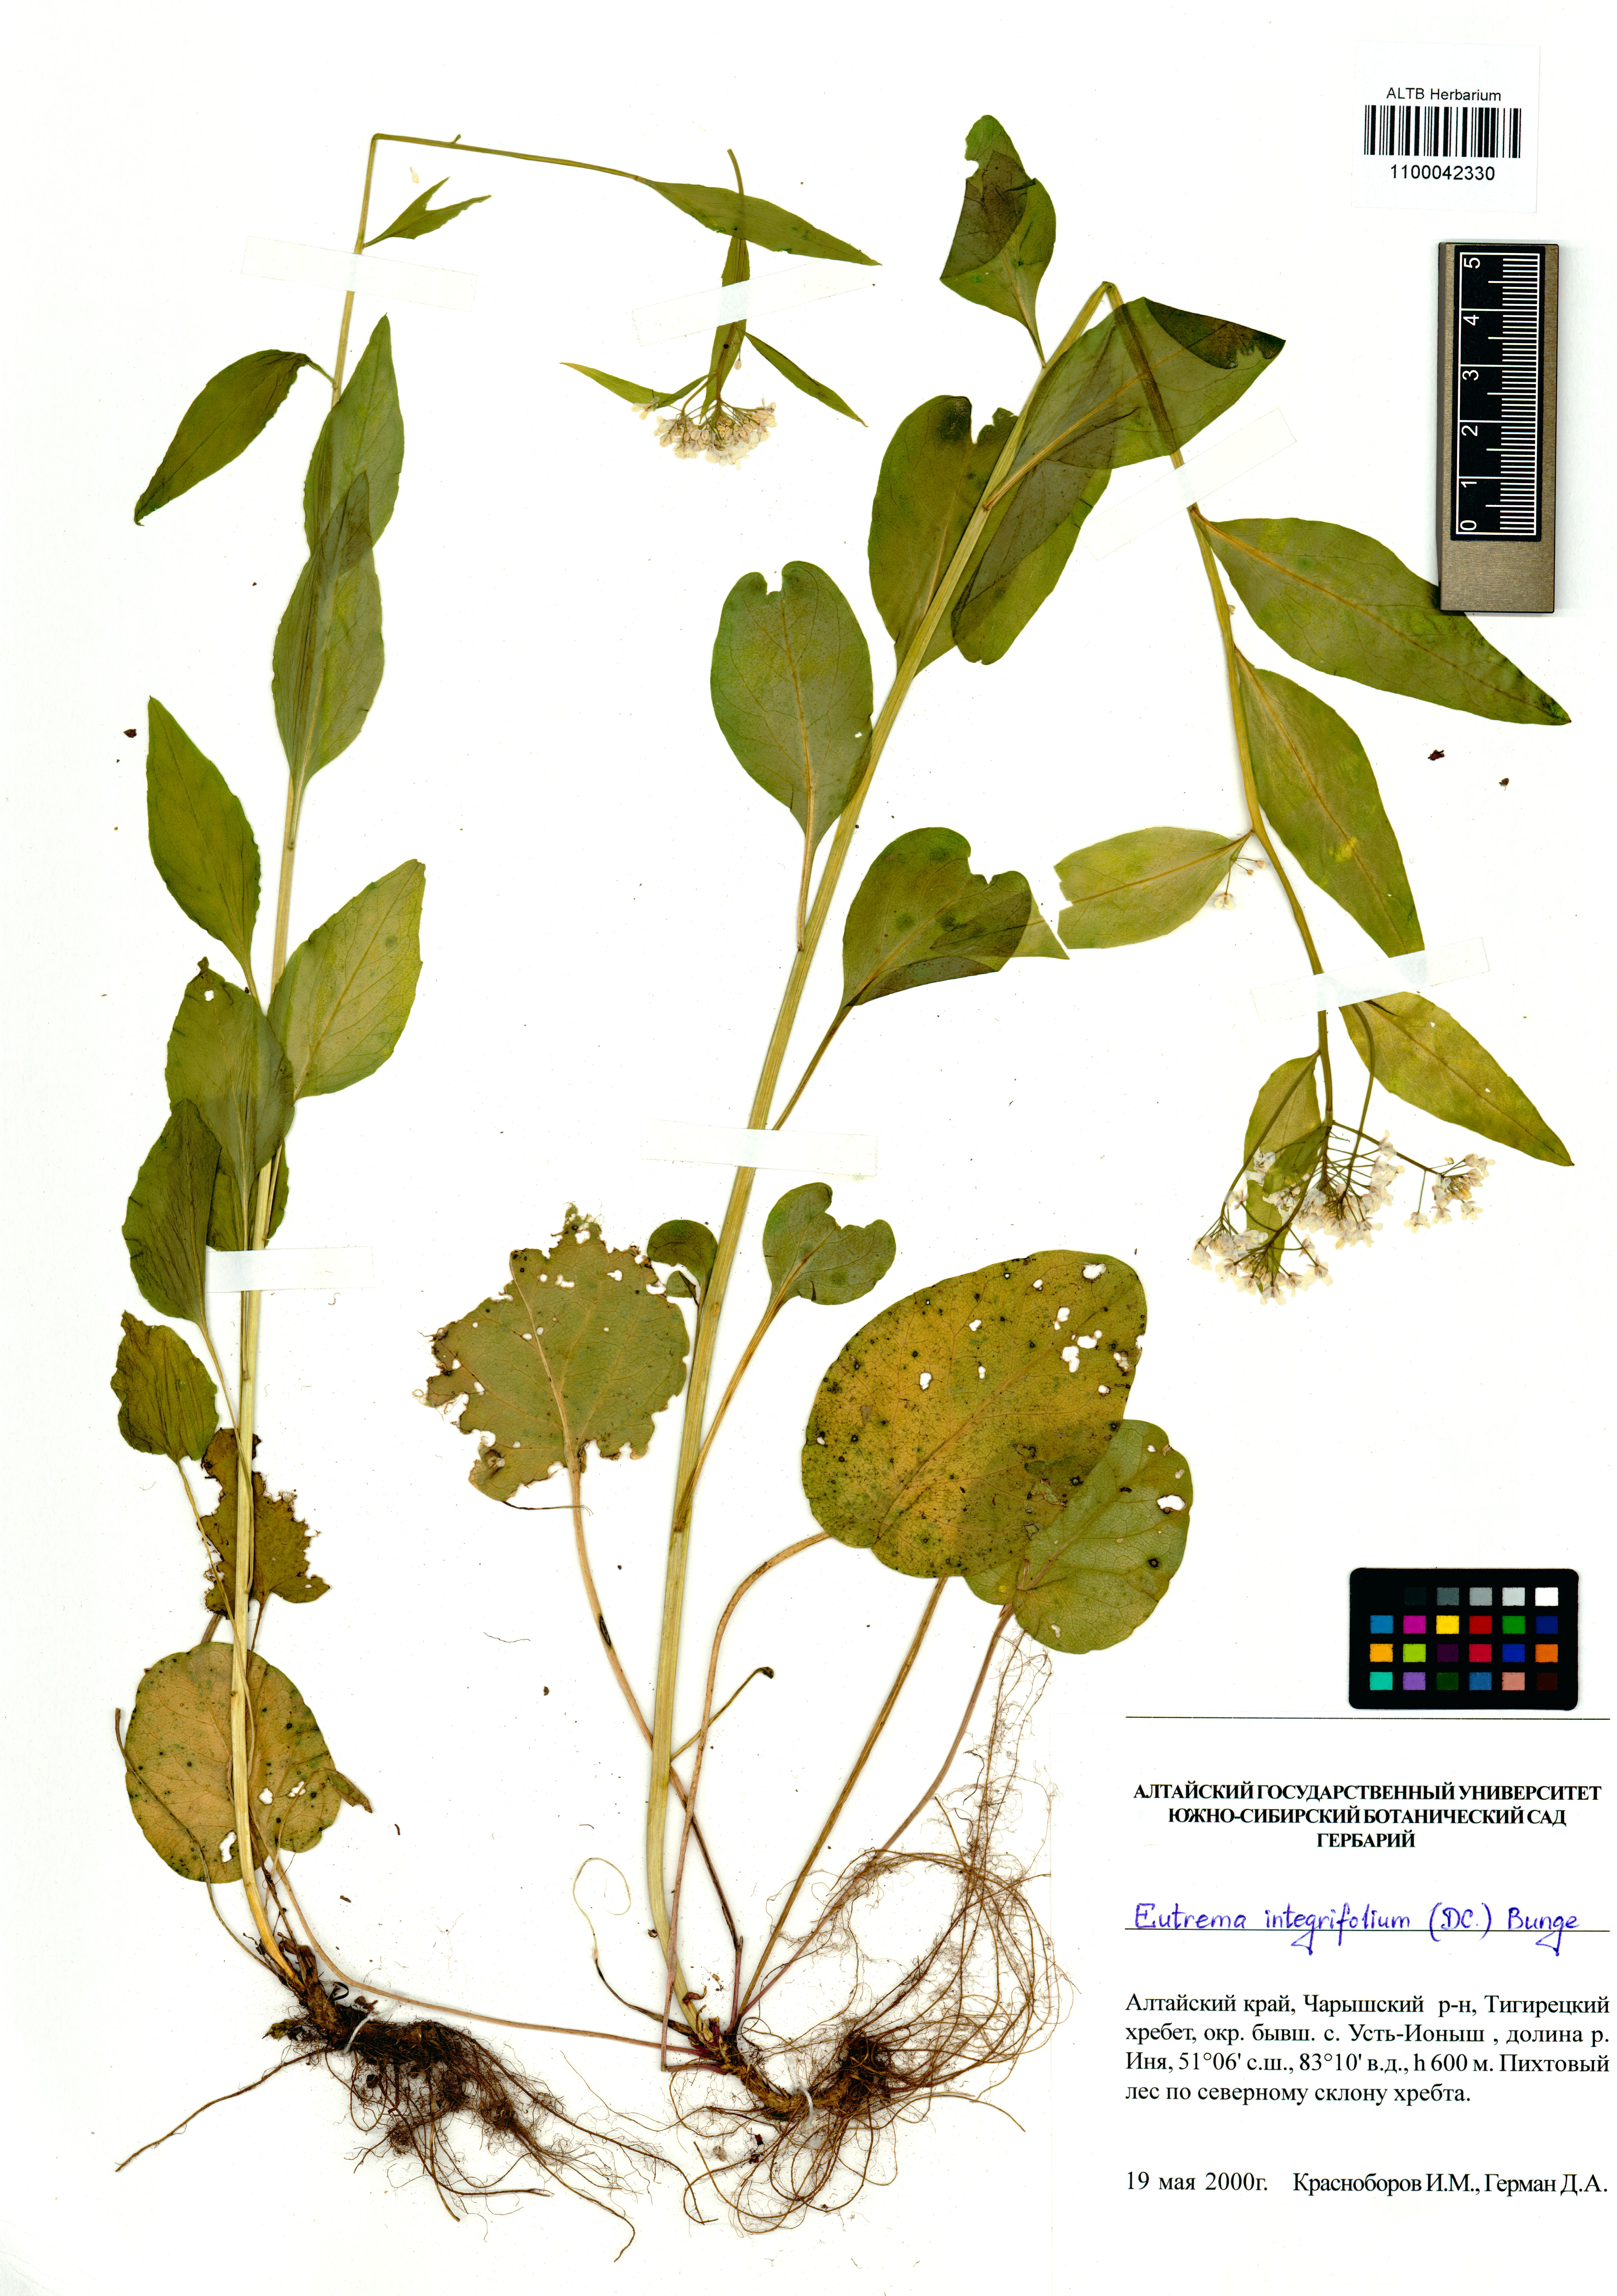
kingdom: Plantae
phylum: Tracheophyta
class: Magnoliopsida
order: Brassicales
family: Brassicaceae
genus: Eutrema
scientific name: Eutrema integrifolium
